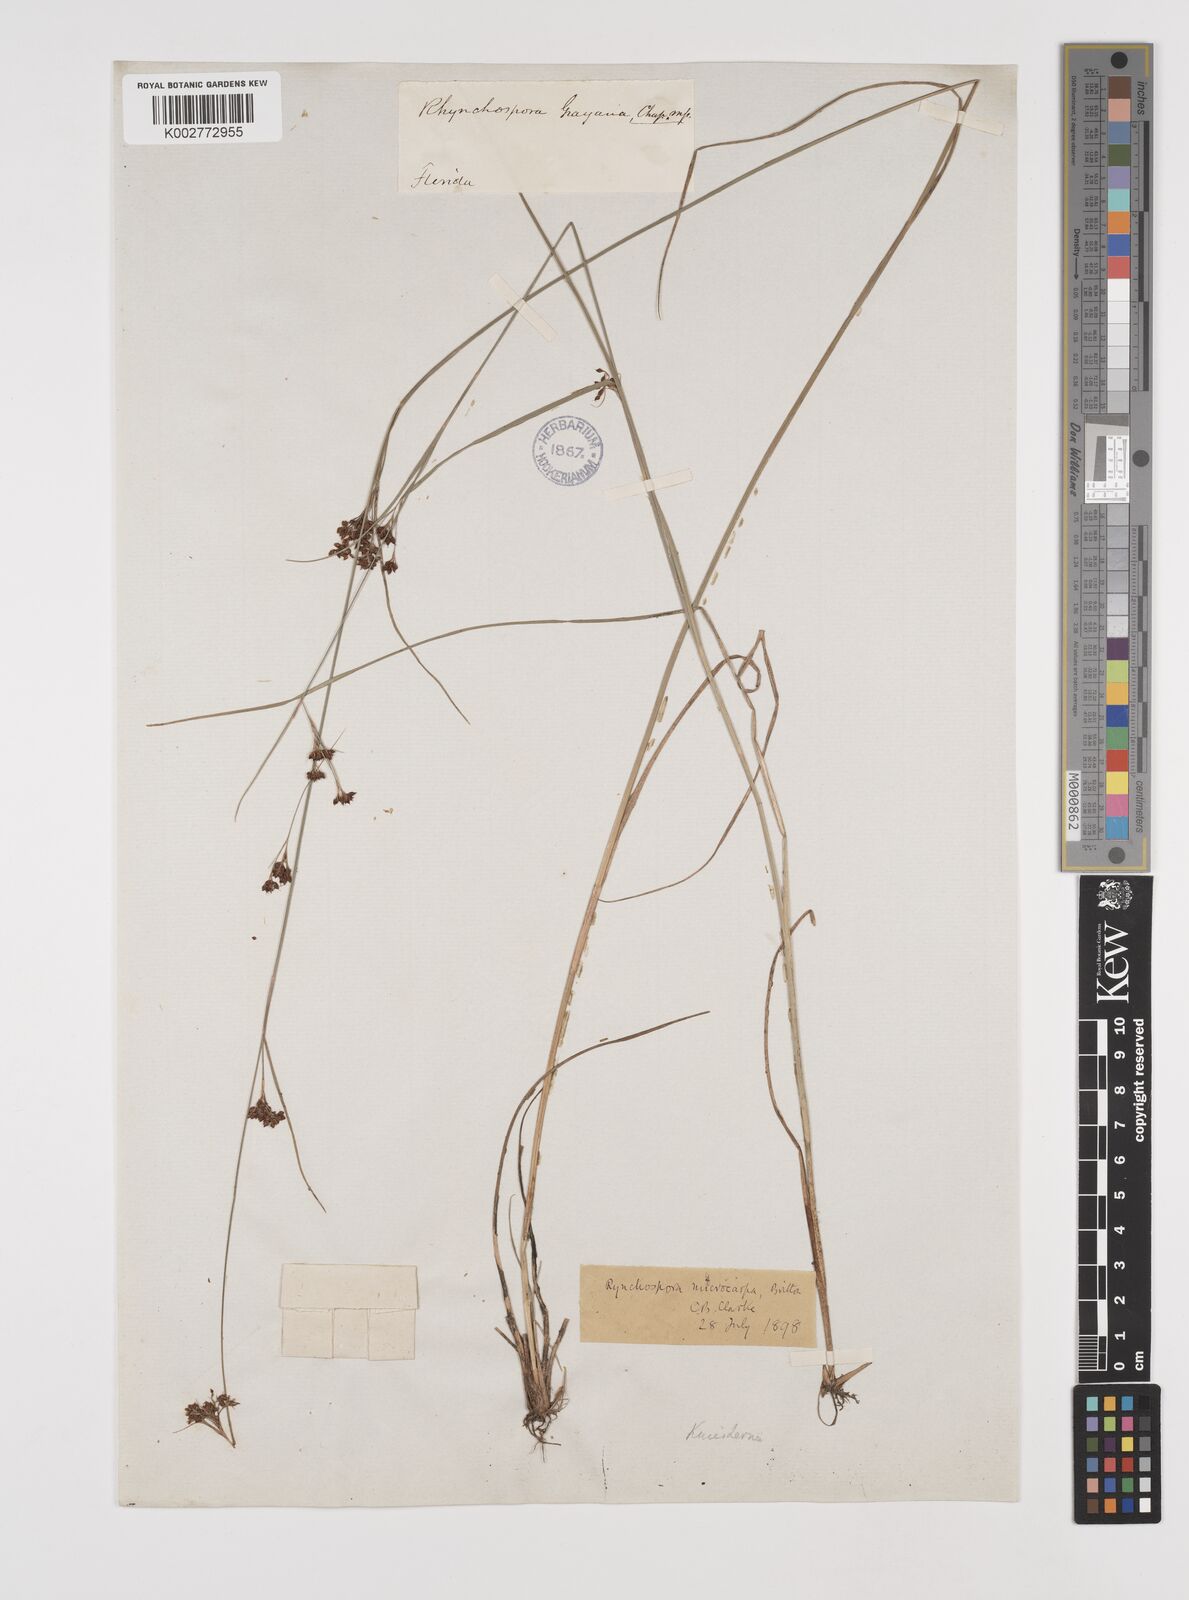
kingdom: Plantae
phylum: Tracheophyta
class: Liliopsida
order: Poales
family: Cyperaceae
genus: Rhynchospora
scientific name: Rhynchospora microcarpa
